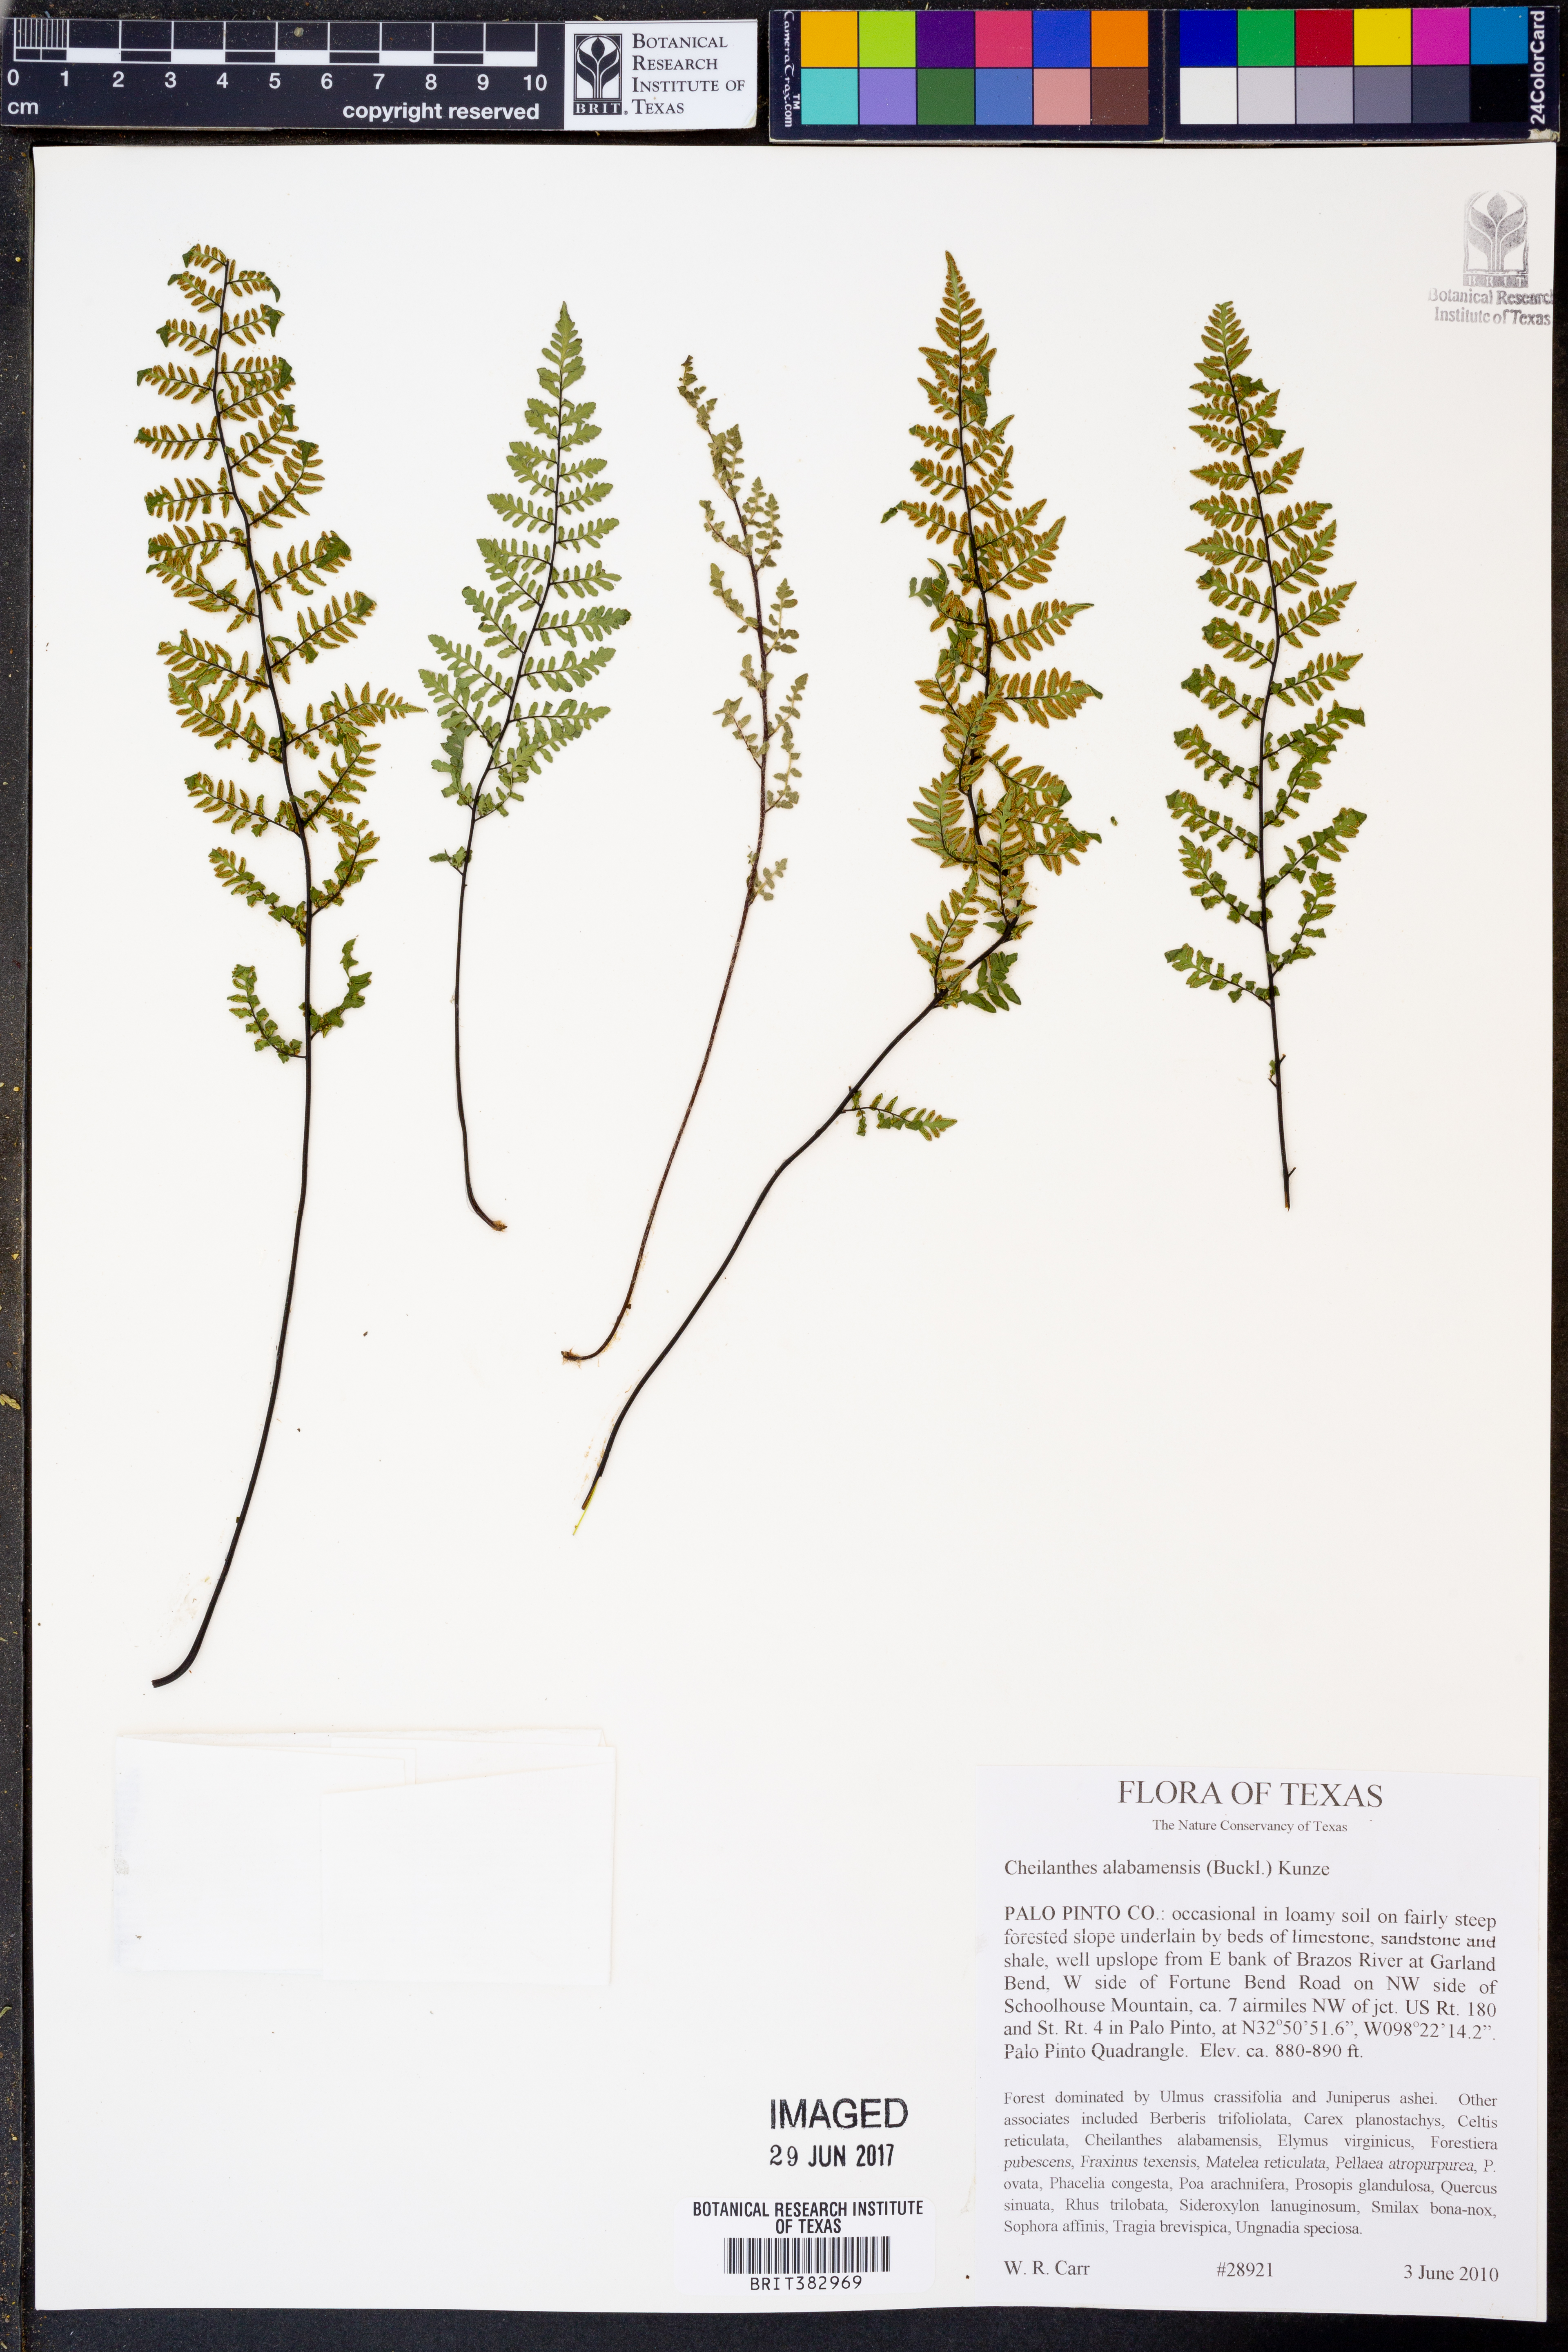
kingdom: Plantae
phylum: Tracheophyta
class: Polypodiopsida
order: Polypodiales
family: Pteridaceae
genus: Myriopteris
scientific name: Myriopteris alabamensis
